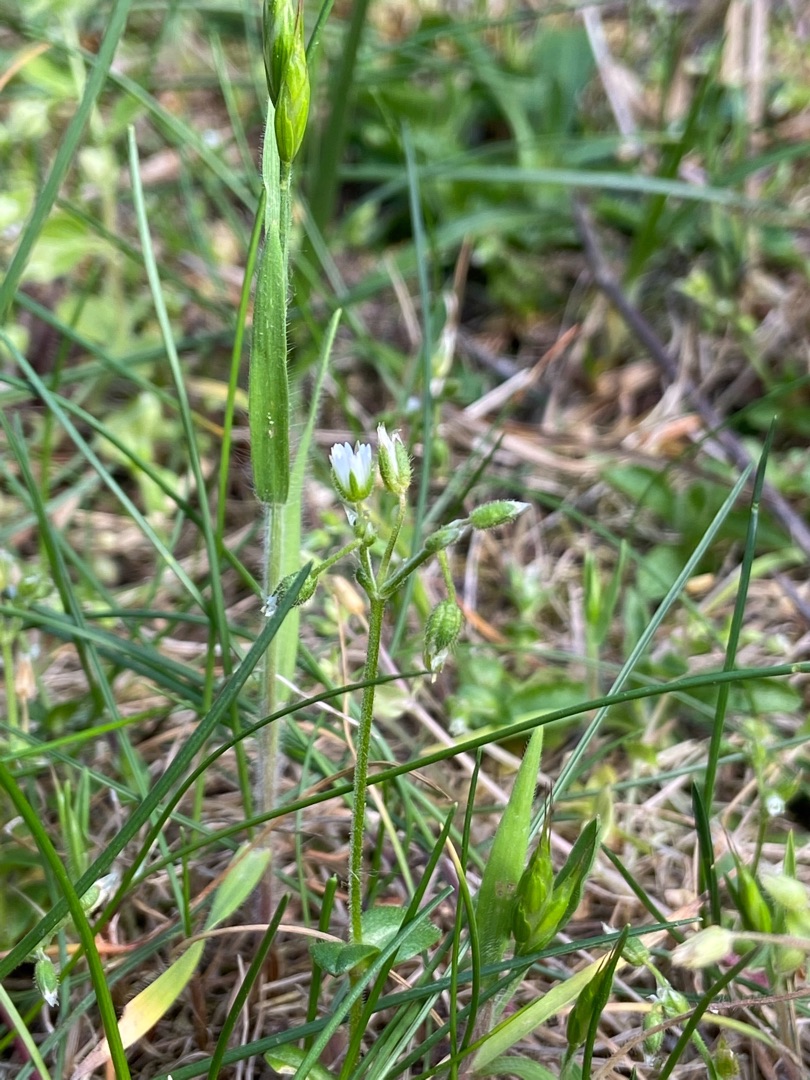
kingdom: Plantae
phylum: Tracheophyta
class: Magnoliopsida
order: Caryophyllales
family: Caryophyllaceae
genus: Cerastium
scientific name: Cerastium holosteoides
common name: Almindelig hønsetarm (varietet)
